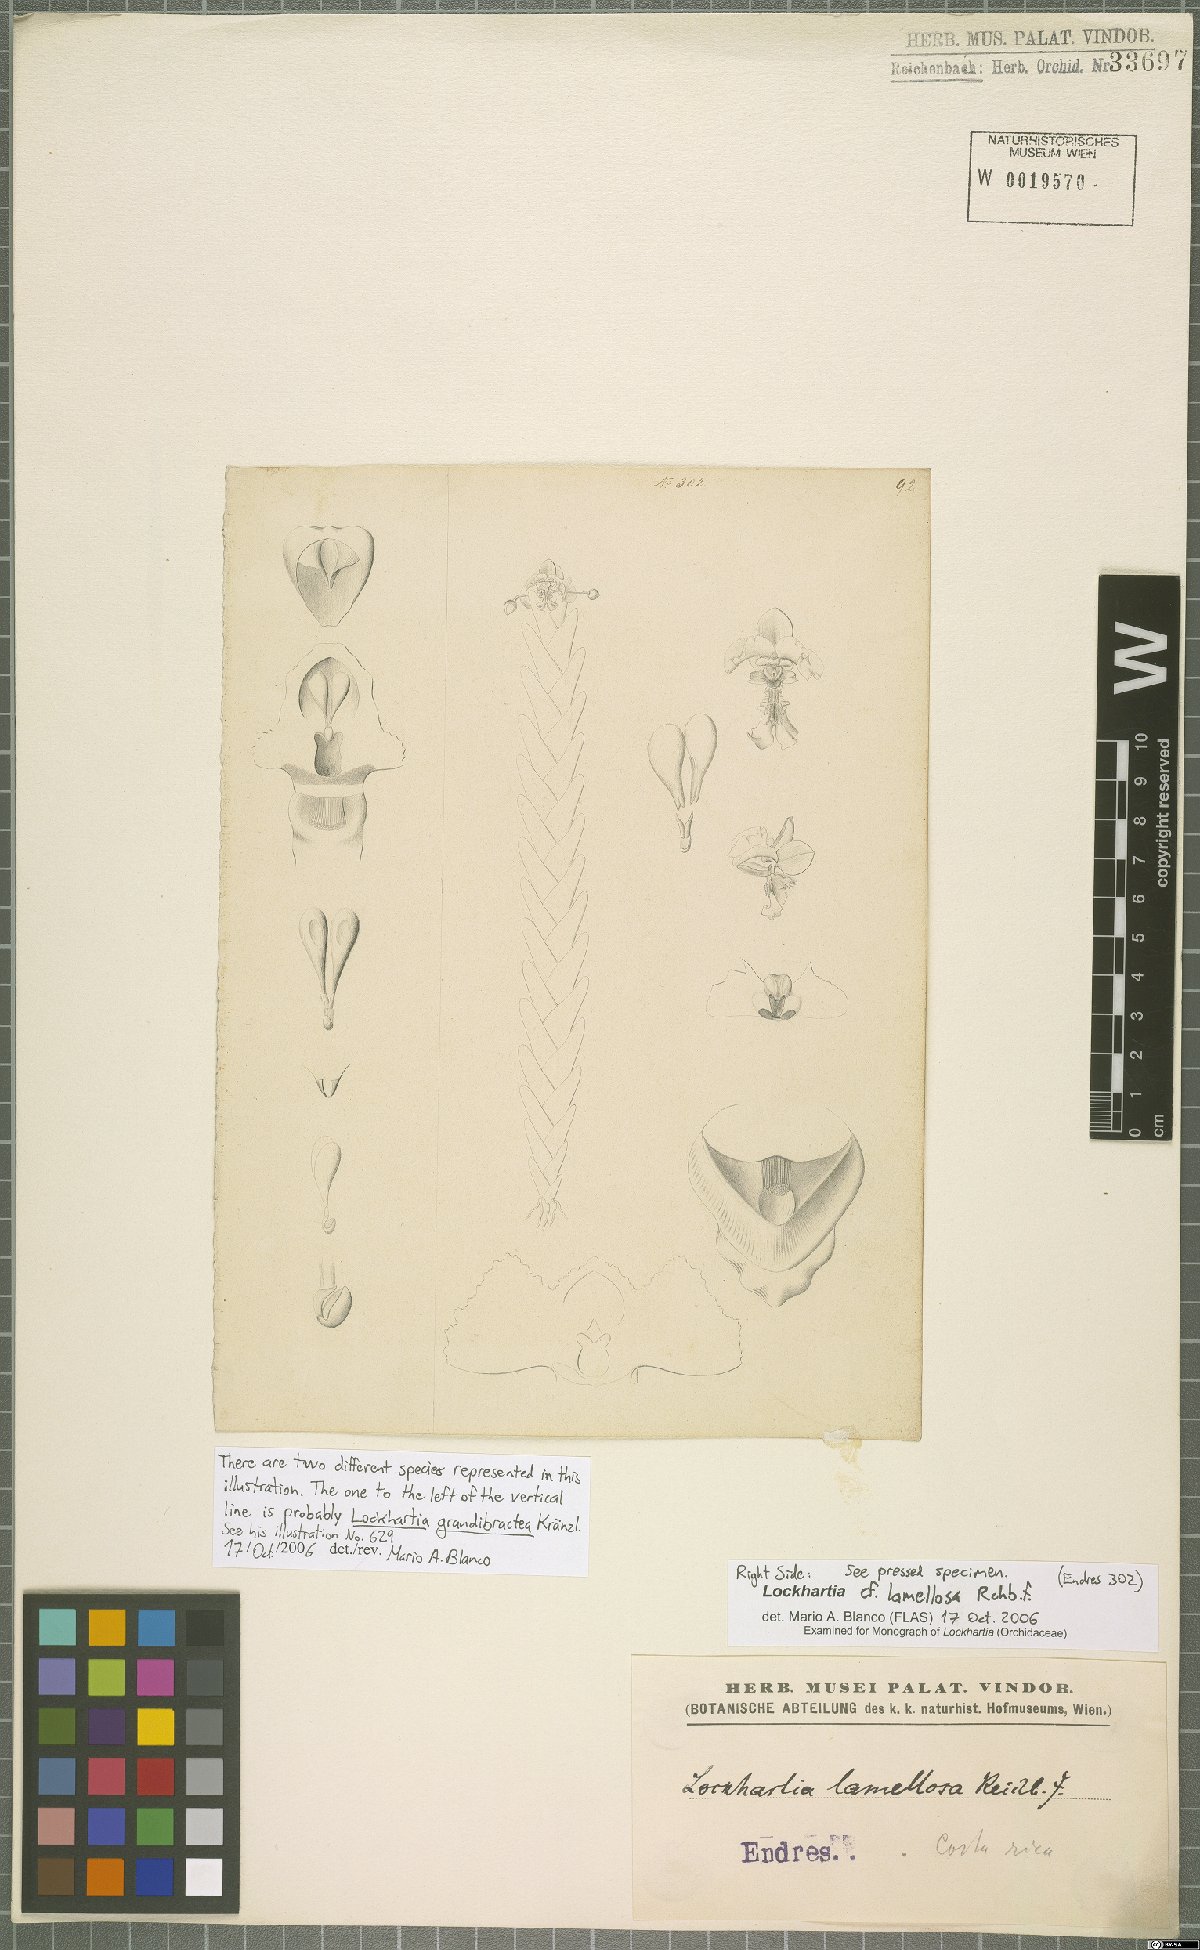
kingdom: Plantae
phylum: Tracheophyta
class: Liliopsida
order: Asparagales
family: Orchidaceae
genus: Lockhartia
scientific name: Lockhartia oerstedii
